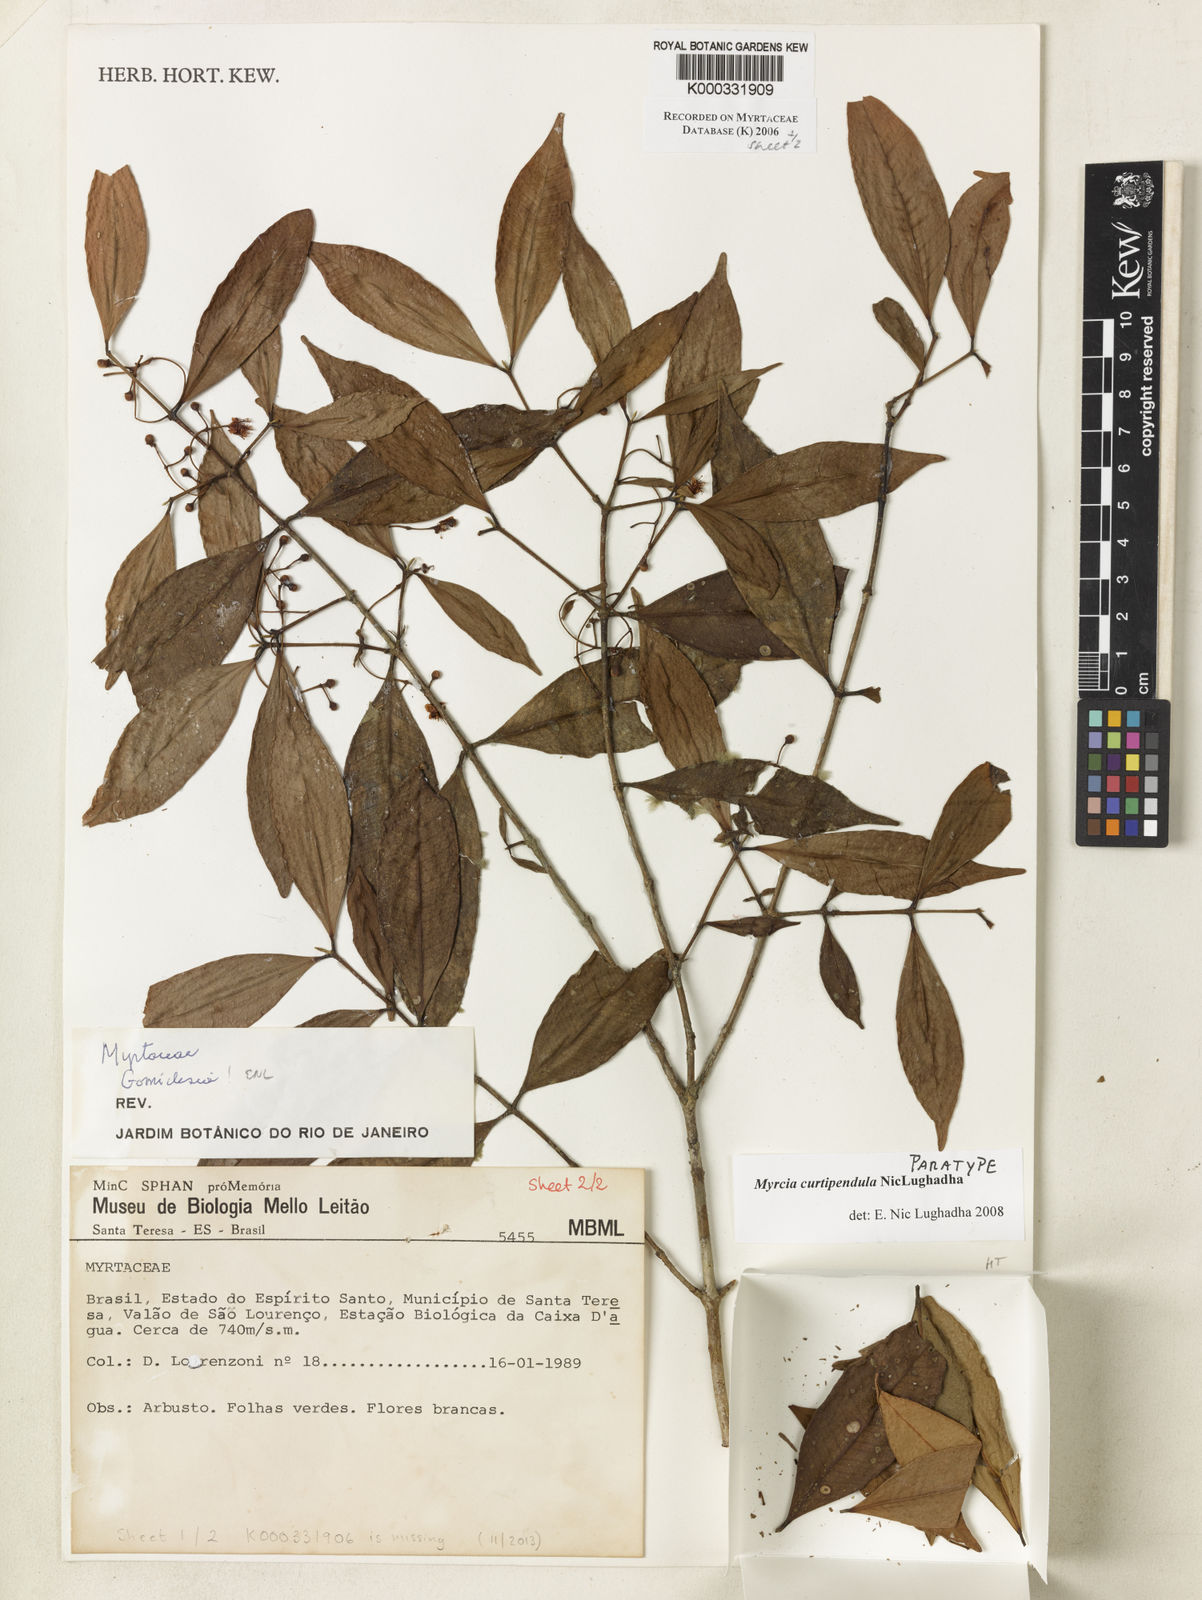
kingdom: Plantae
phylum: Tracheophyta
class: Magnoliopsida
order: Myrtales
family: Myrtaceae
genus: Myrcia
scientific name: Myrcia curtipendula
